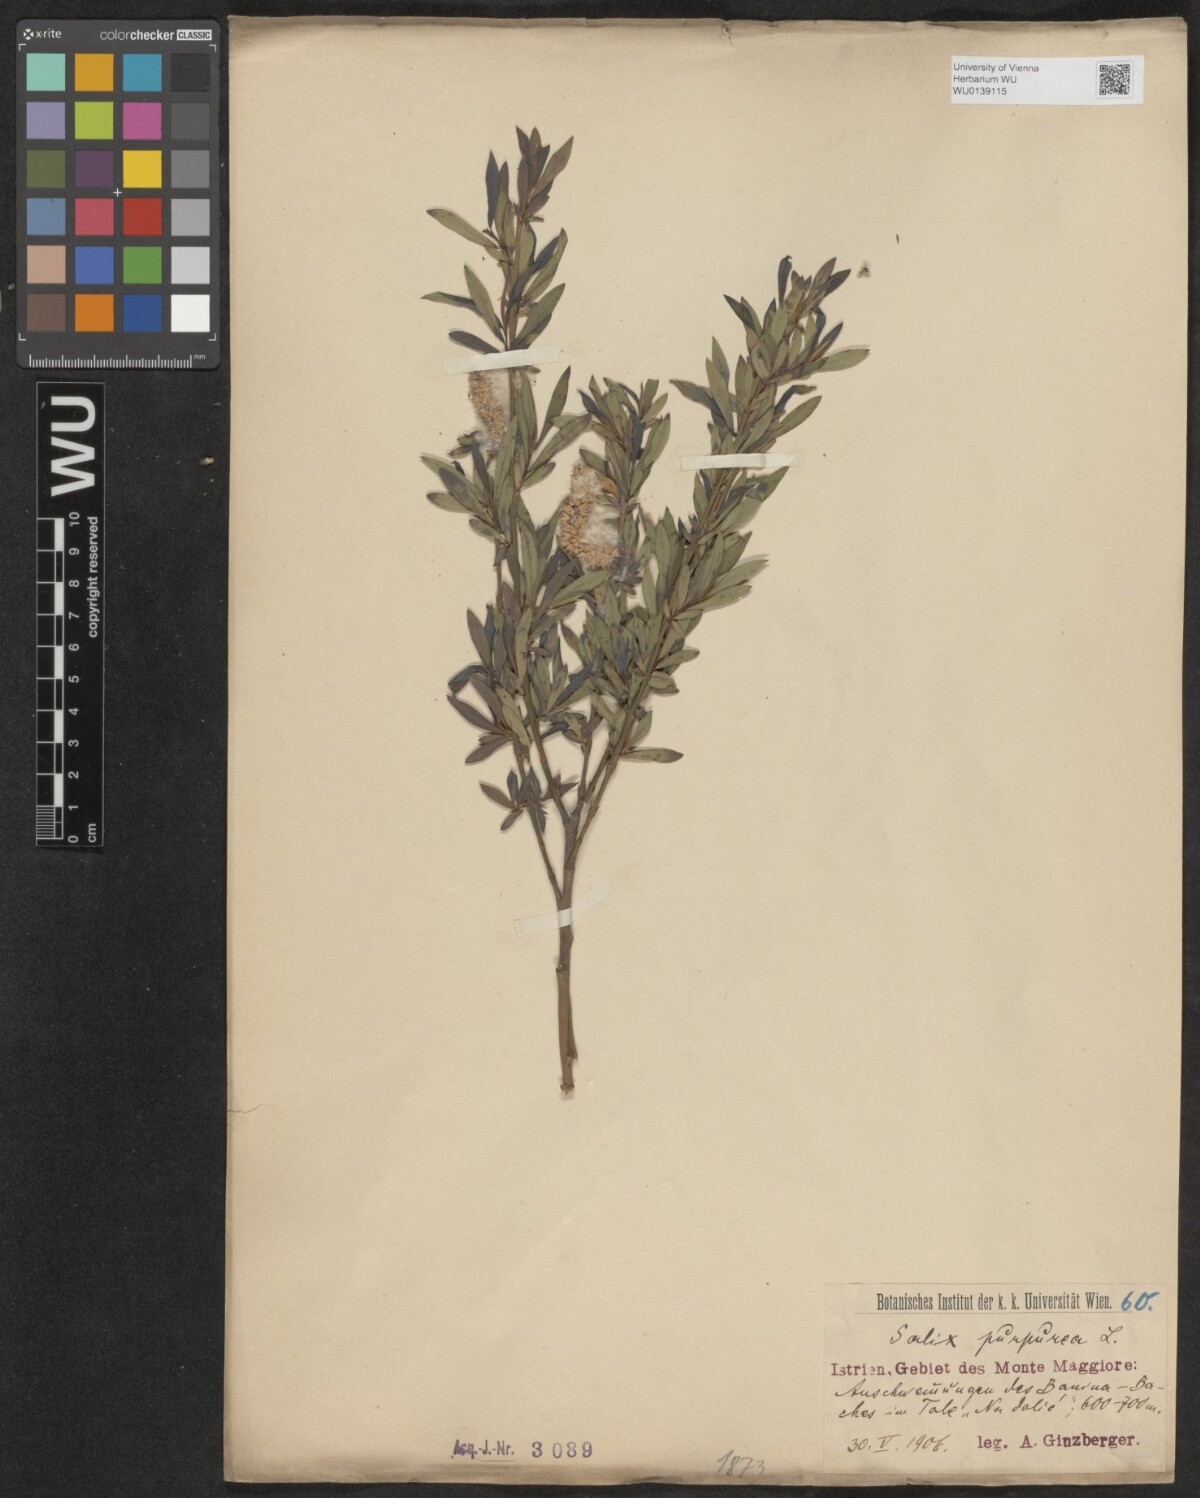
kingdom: Plantae
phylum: Tracheophyta
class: Magnoliopsida
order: Malpighiales
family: Salicaceae
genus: Salix
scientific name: Salix purpurea
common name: Purple willow
